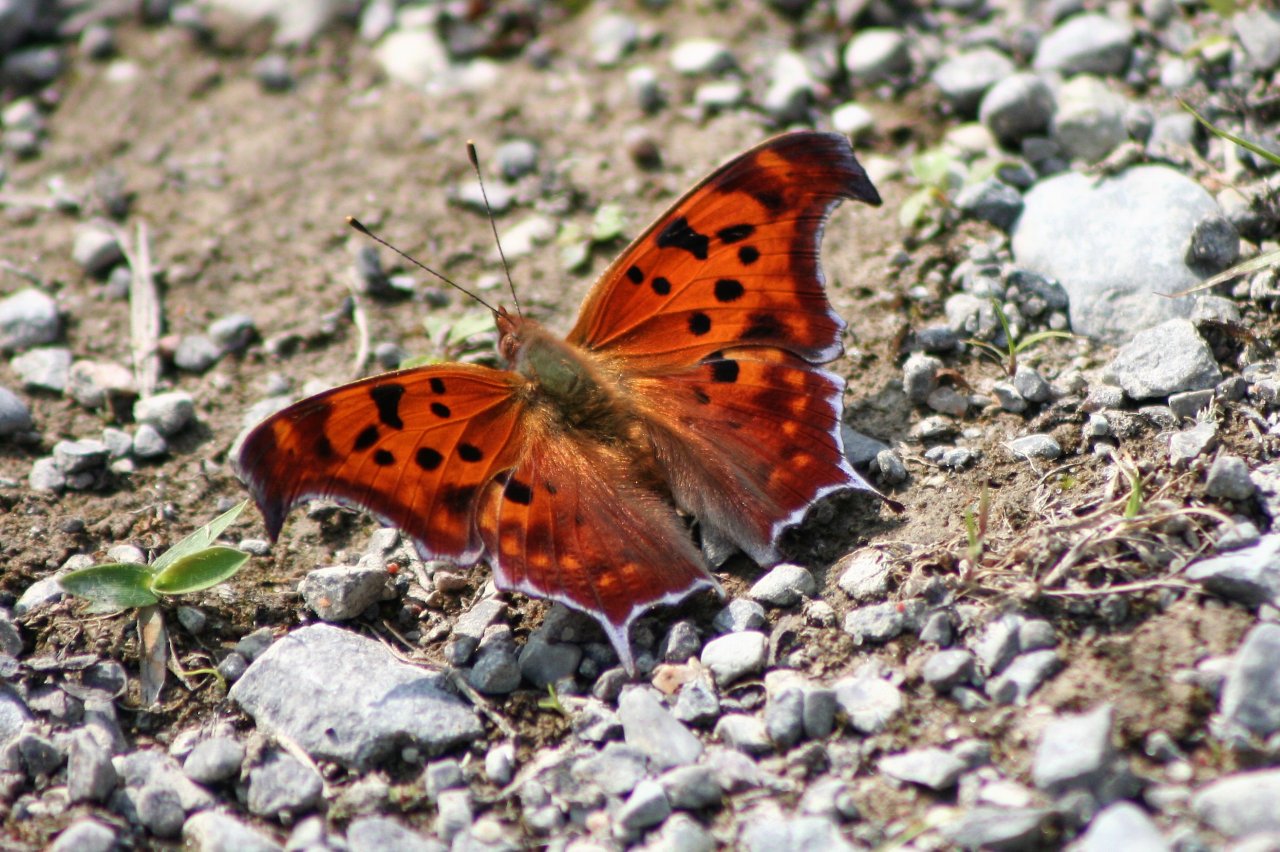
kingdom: Animalia
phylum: Arthropoda
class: Insecta
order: Lepidoptera
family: Nymphalidae
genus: Polygonia
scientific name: Polygonia interrogationis
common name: Question Mark
